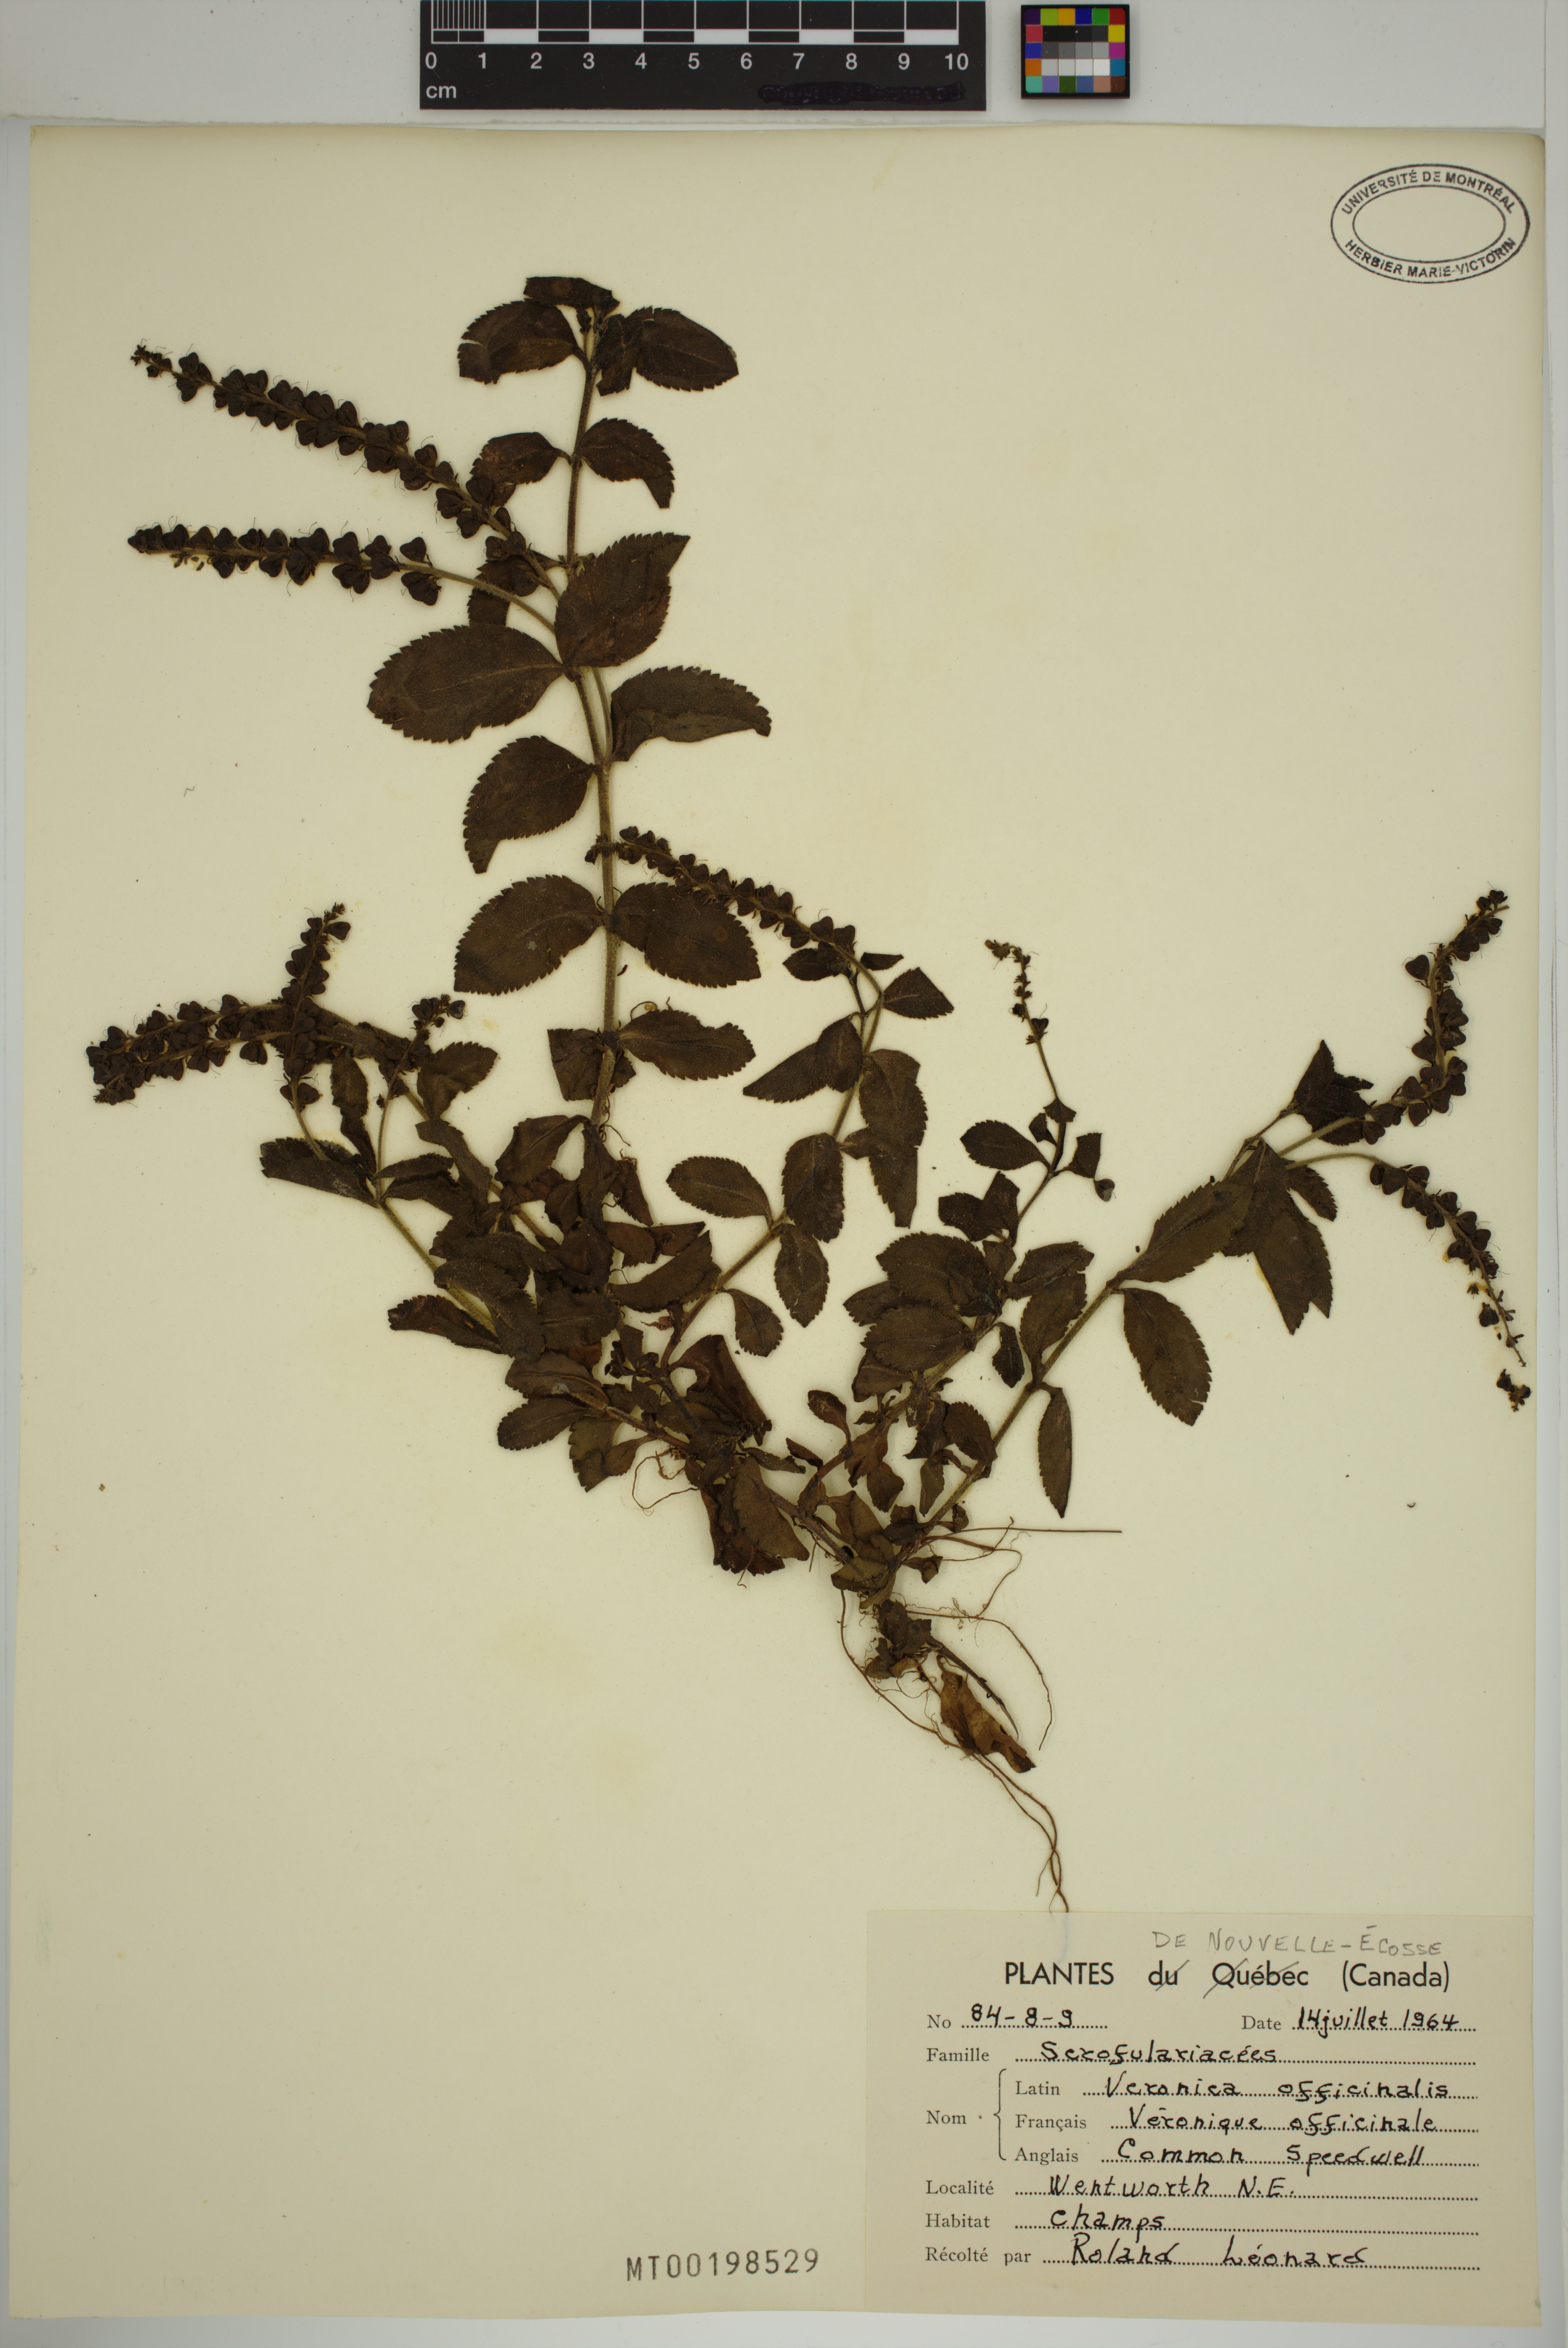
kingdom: Plantae
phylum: Tracheophyta
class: Magnoliopsida
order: Lamiales
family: Plantaginaceae
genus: Veronica
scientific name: Veronica officinalis
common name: Common speedwell
